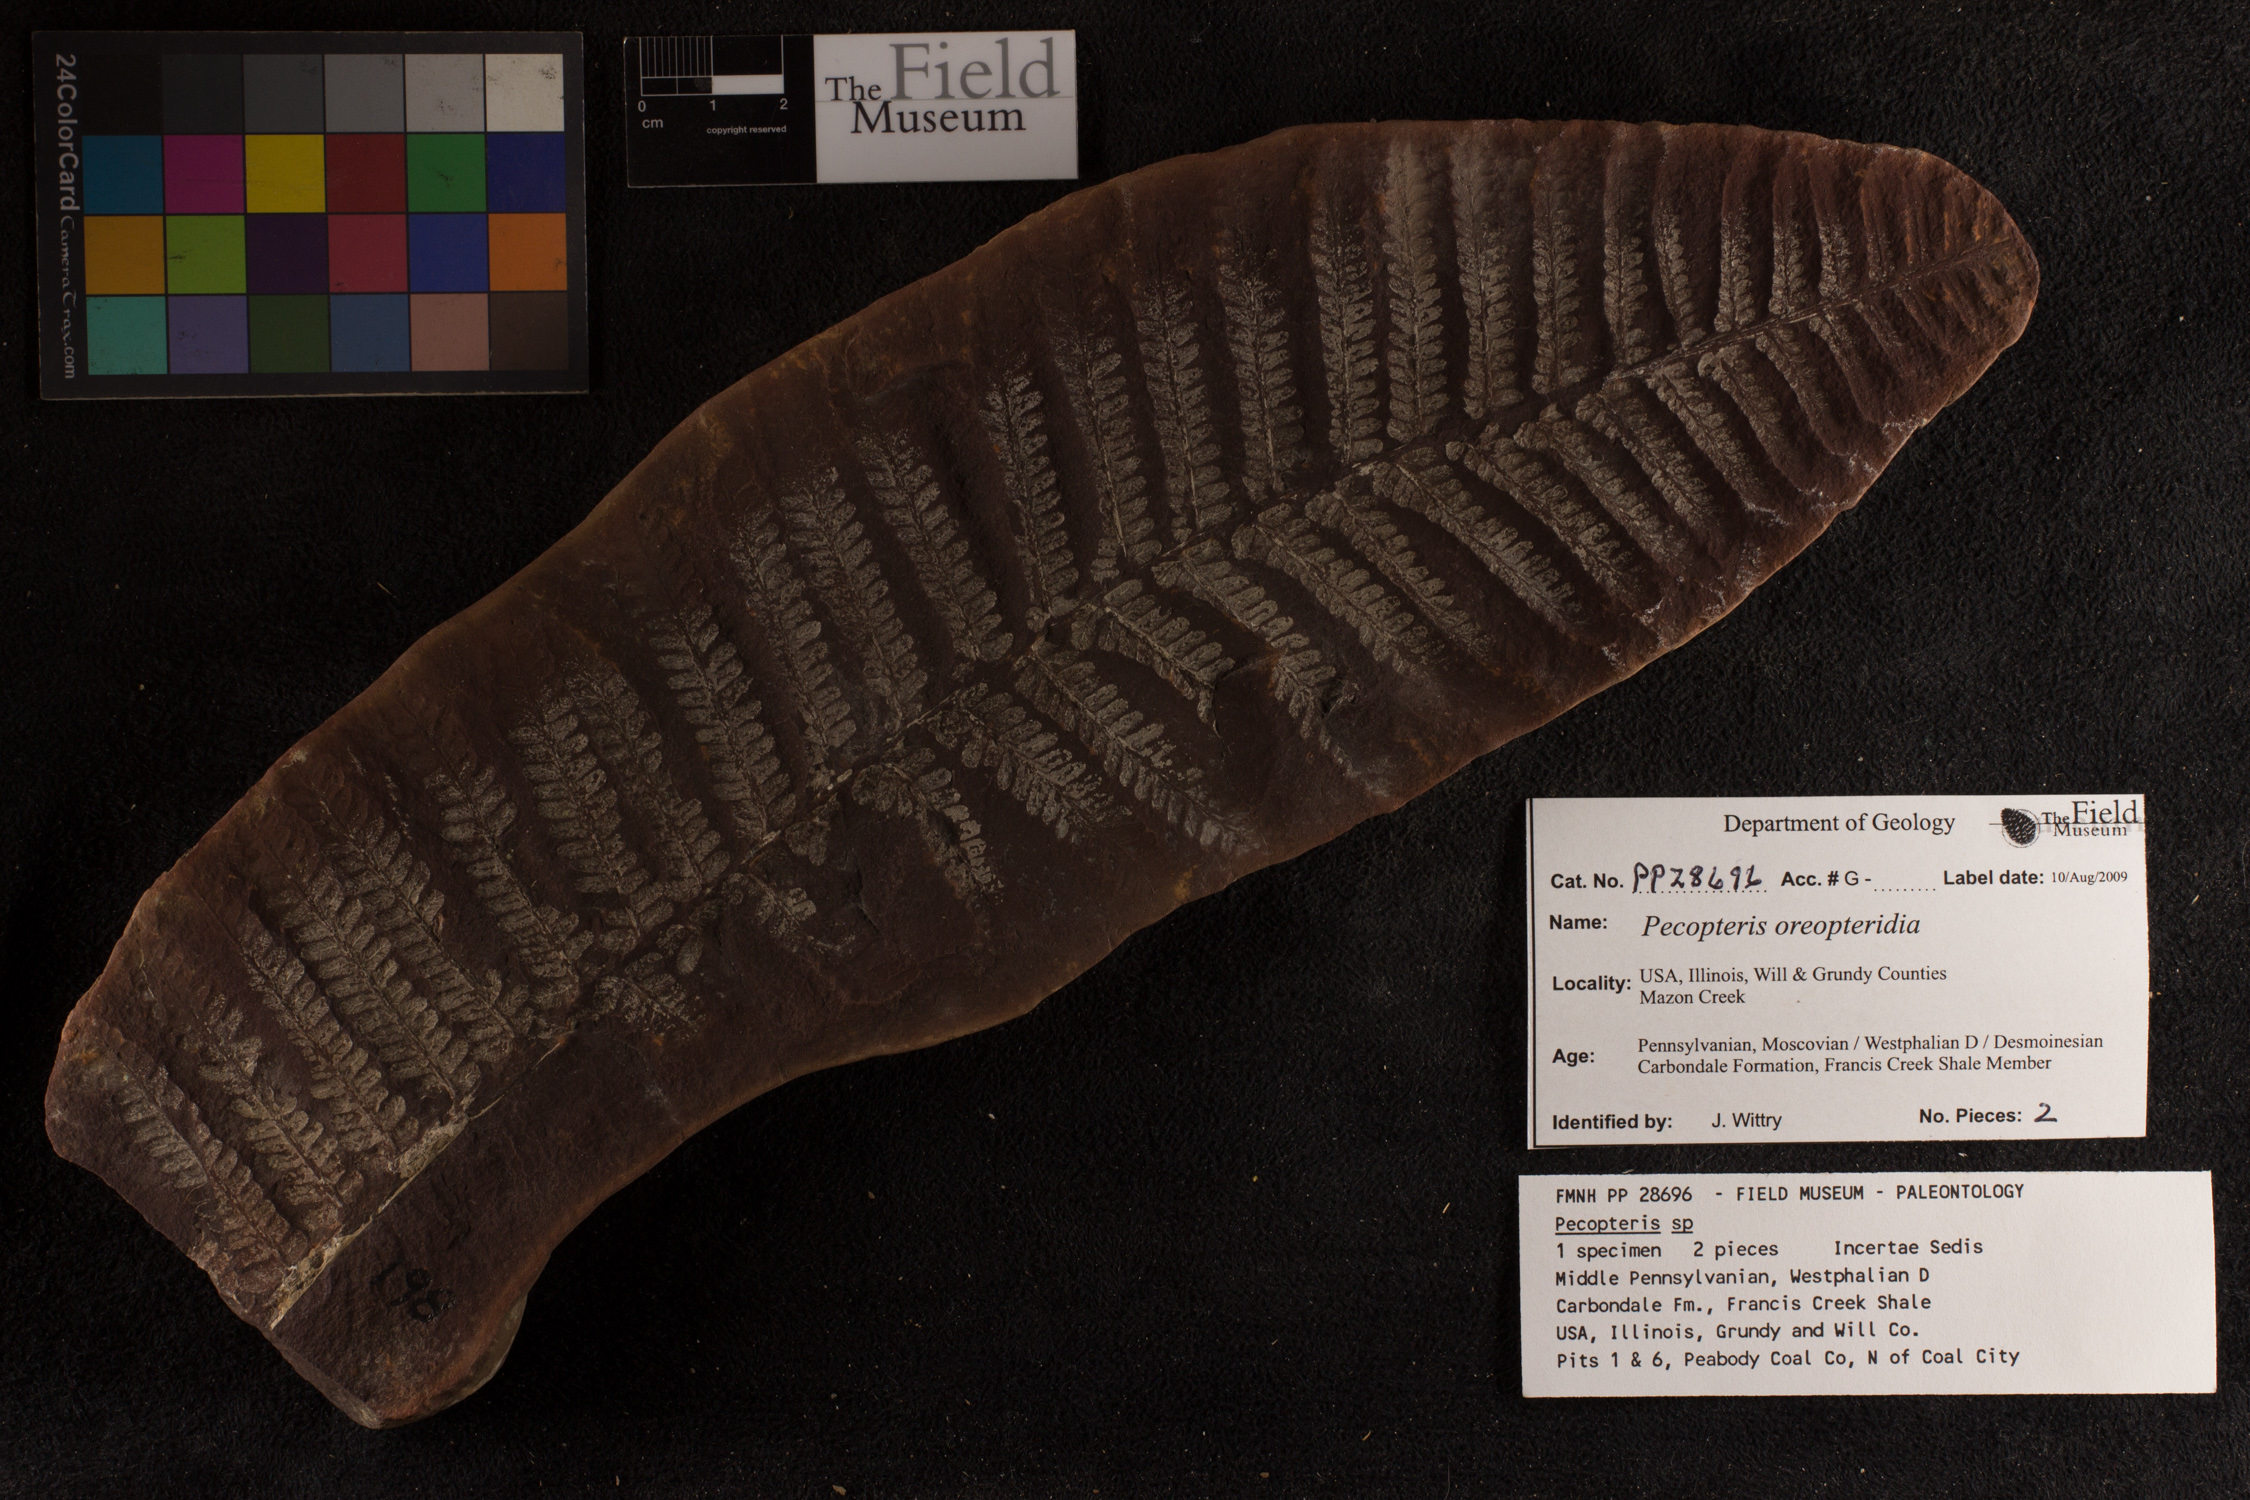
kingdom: Plantae
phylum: Tracheophyta
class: Polypodiopsida
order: Marattiales
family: Asterothecaceae
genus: Pecopteris
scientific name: Pecopteris
